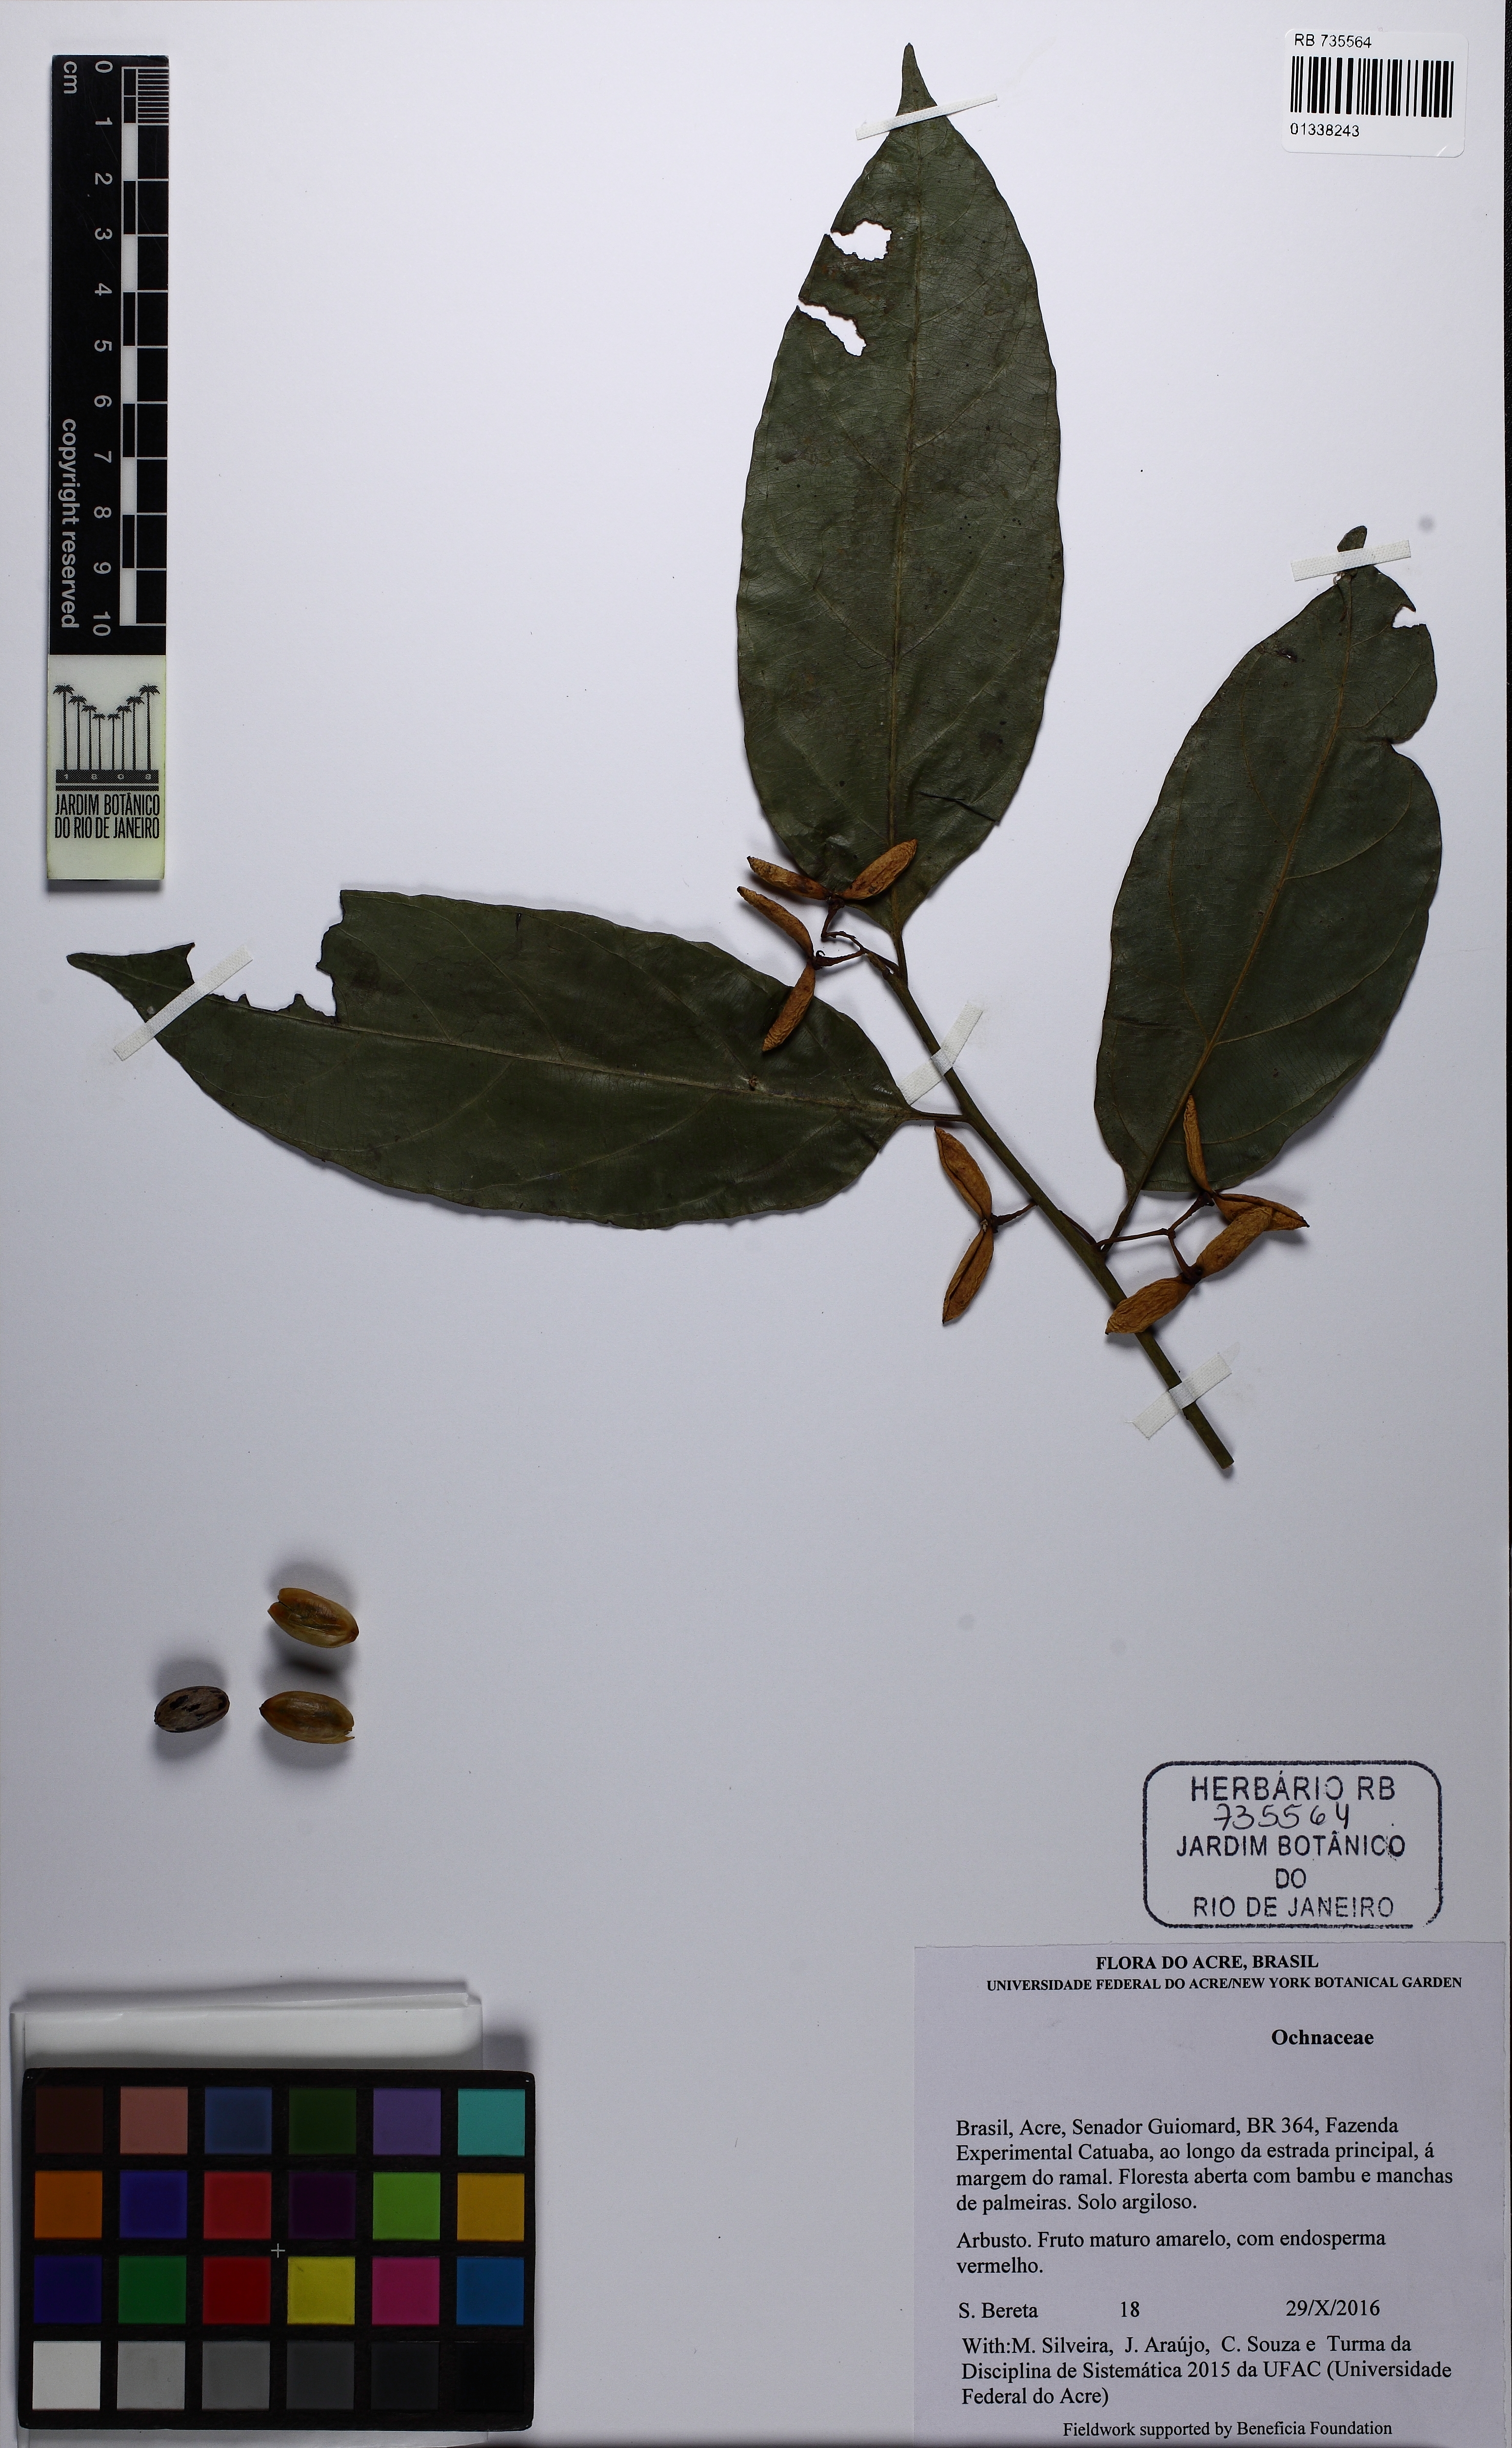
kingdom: Plantae
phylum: Tracheophyta
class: Magnoliopsida
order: Magnoliales
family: Myristicaceae
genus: Compsoneura
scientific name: Compsoneura
